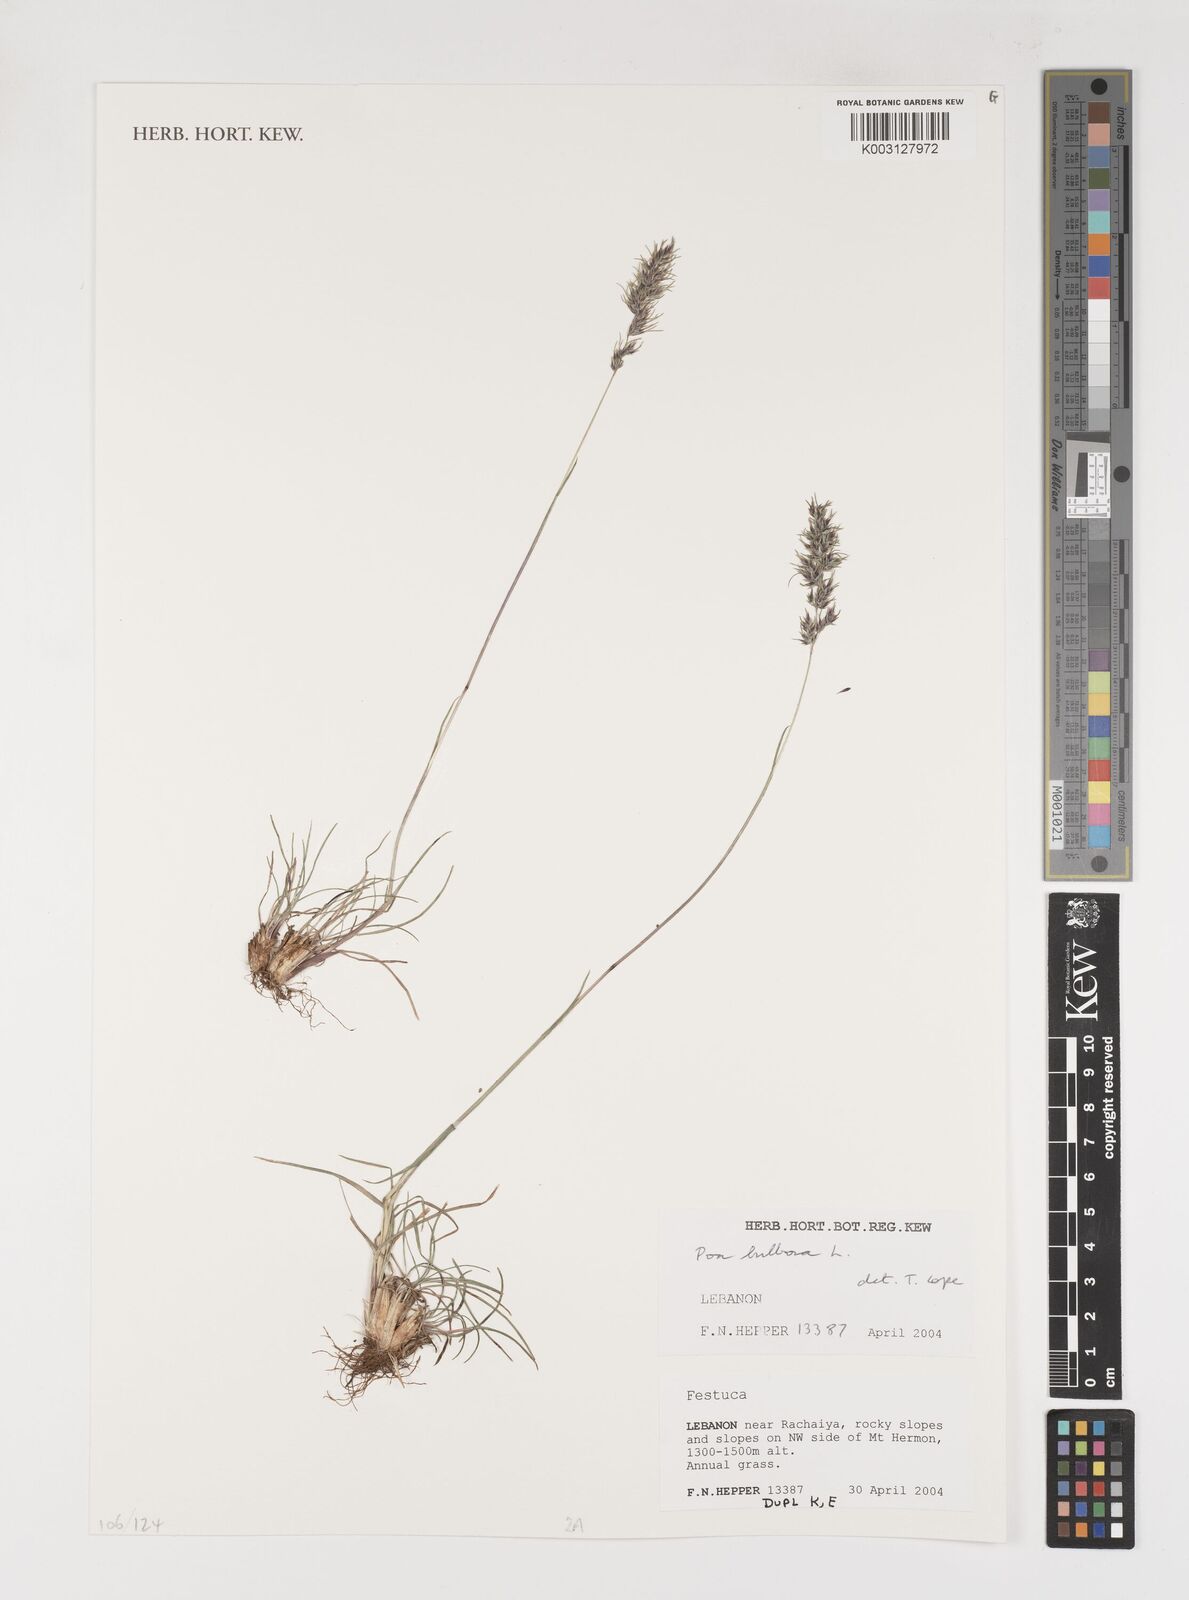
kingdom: Plantae
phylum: Tracheophyta
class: Liliopsida
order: Poales
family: Poaceae
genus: Poa
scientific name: Poa
